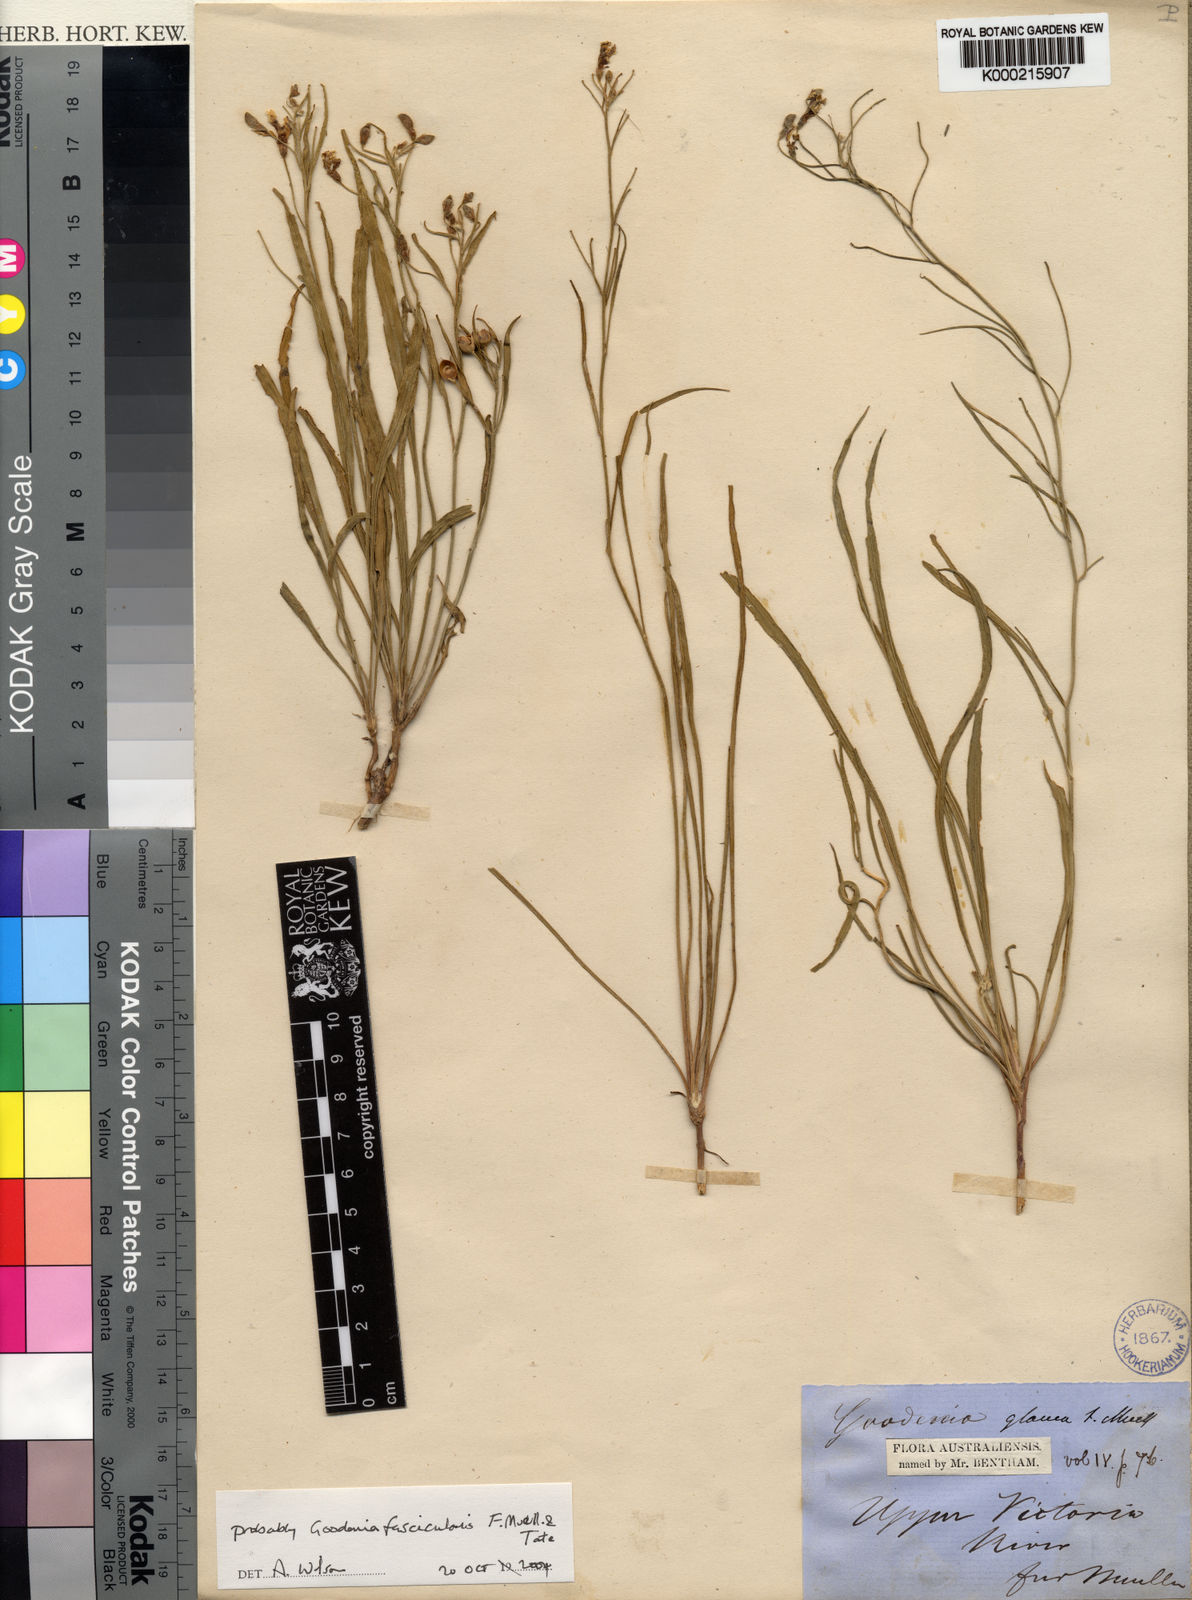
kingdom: Plantae
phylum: Tracheophyta
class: Magnoliopsida
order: Asterales
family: Goodeniaceae
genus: Goodenia
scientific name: Goodenia fascicularis
